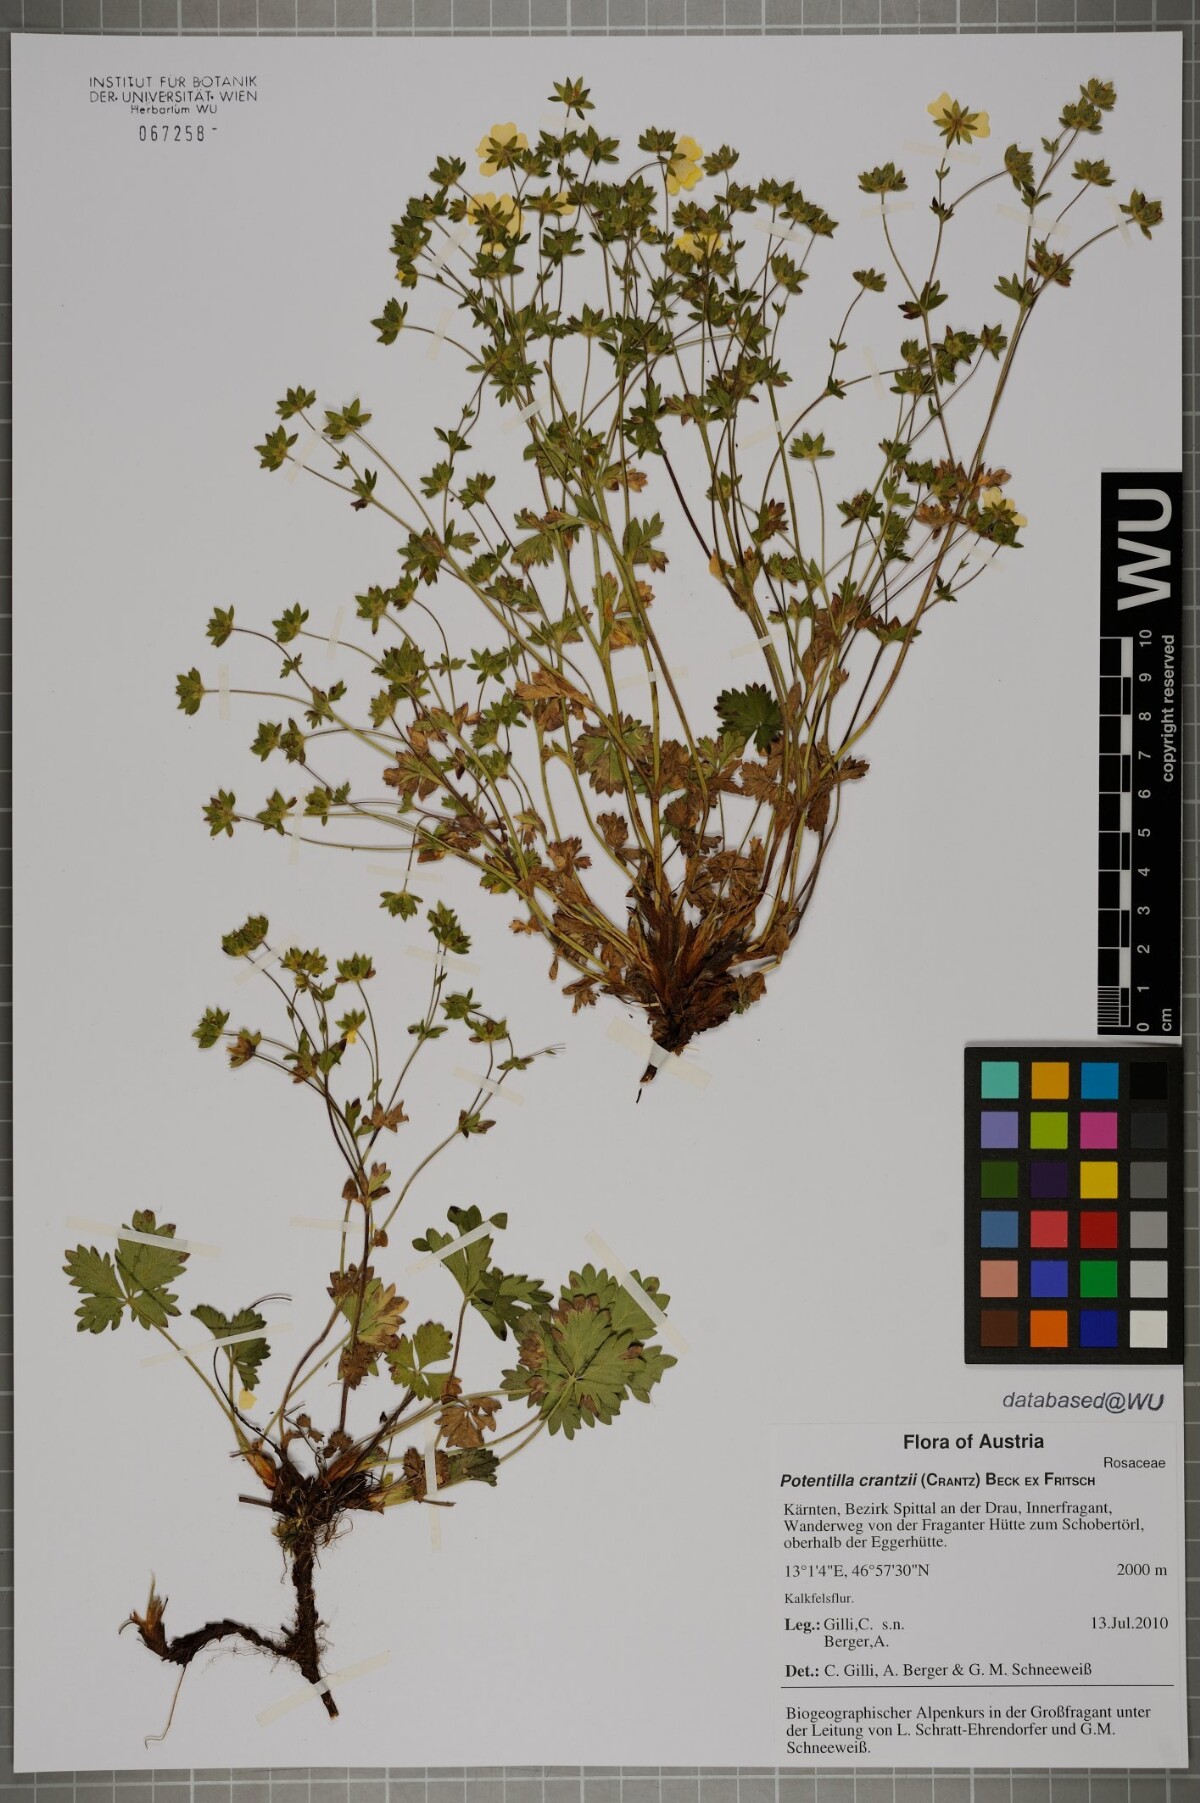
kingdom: Plantae
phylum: Tracheophyta
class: Magnoliopsida
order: Rosales
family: Rosaceae
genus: Potentilla
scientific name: Potentilla crantzii
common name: Alpine cinquefoil
